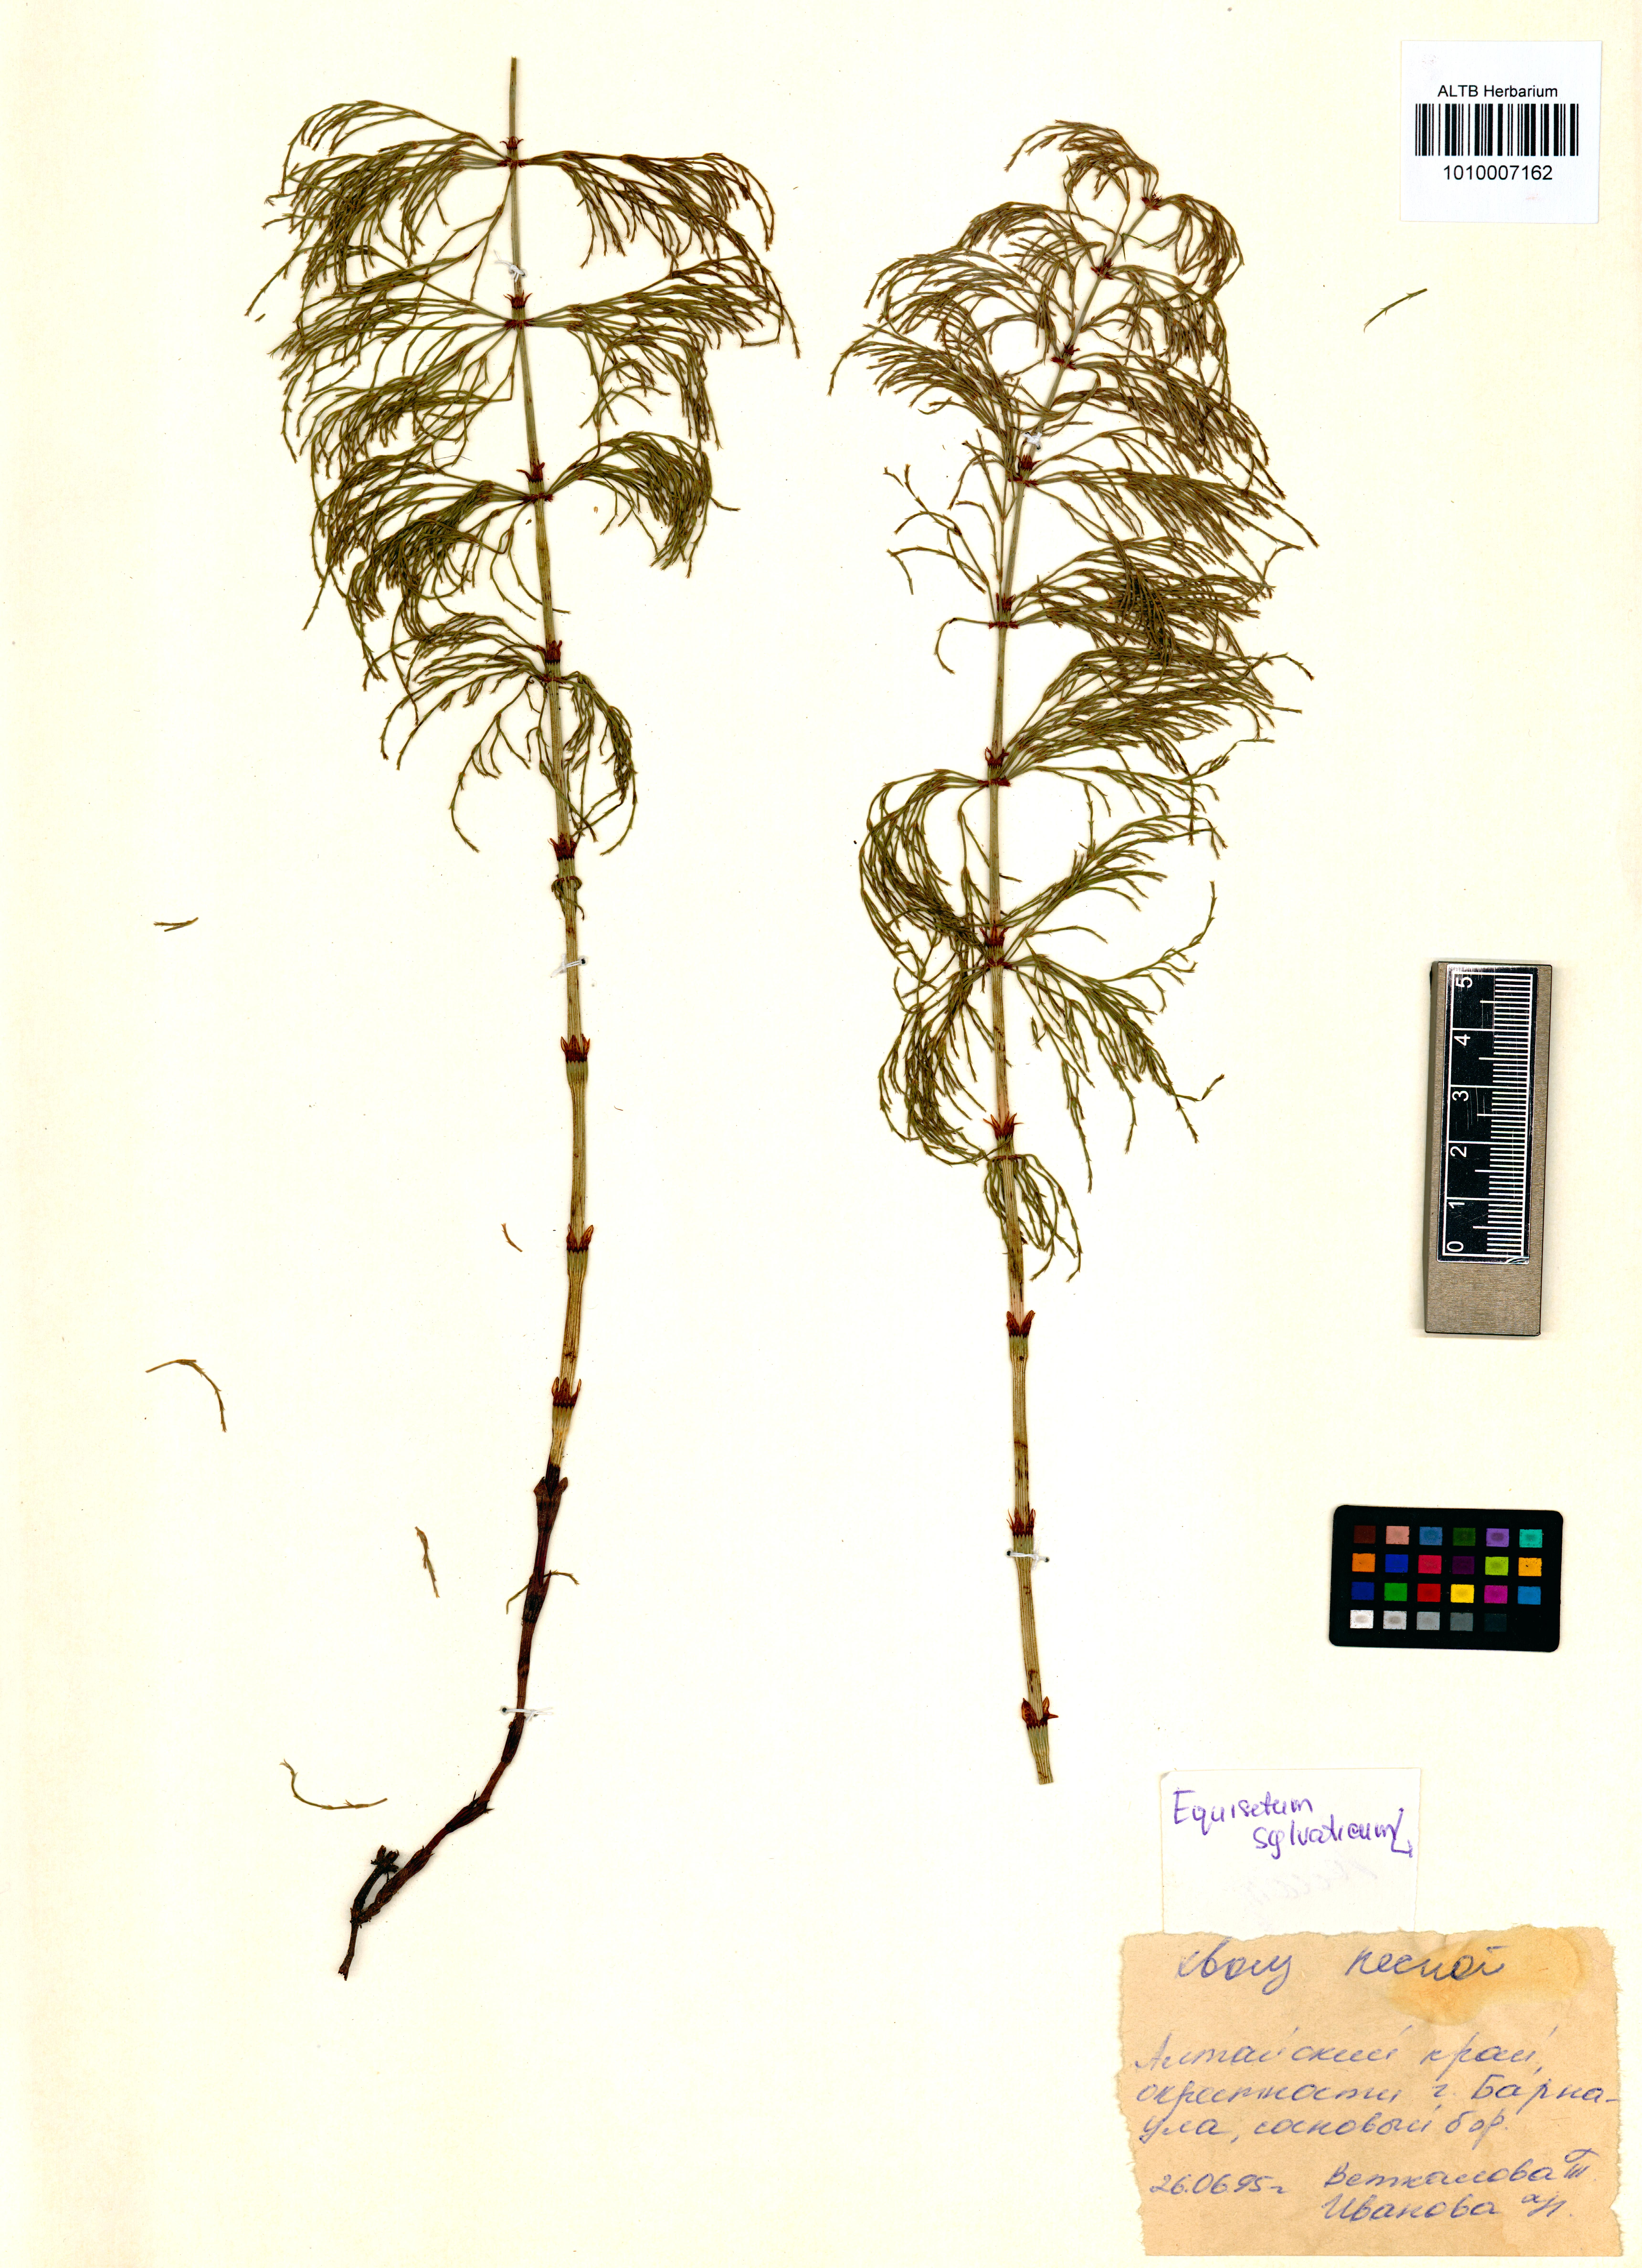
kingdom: Plantae
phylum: Tracheophyta
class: Polypodiopsida
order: Equisetales
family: Equisetaceae
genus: Equisetum
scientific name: Equisetum sylvaticum
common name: Wood horsetail
